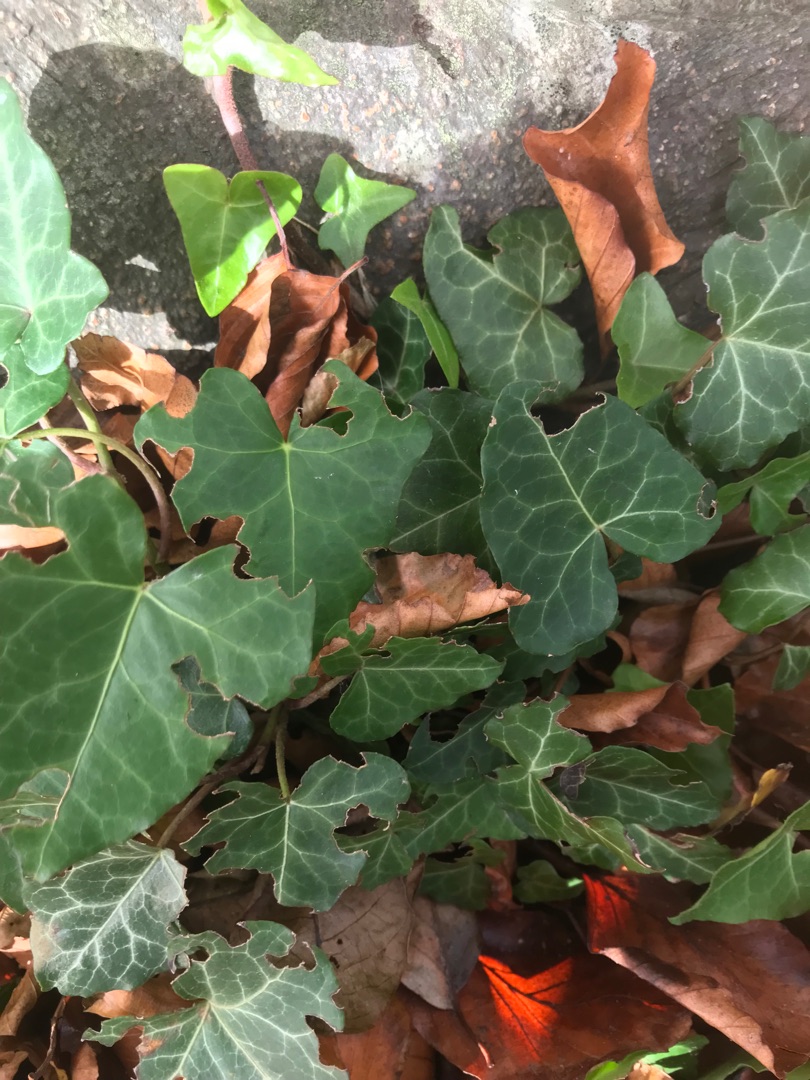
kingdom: Plantae
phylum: Tracheophyta
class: Magnoliopsida
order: Apiales
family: Araliaceae
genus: Hedera
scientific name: Hedera helix
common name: Vedbend
